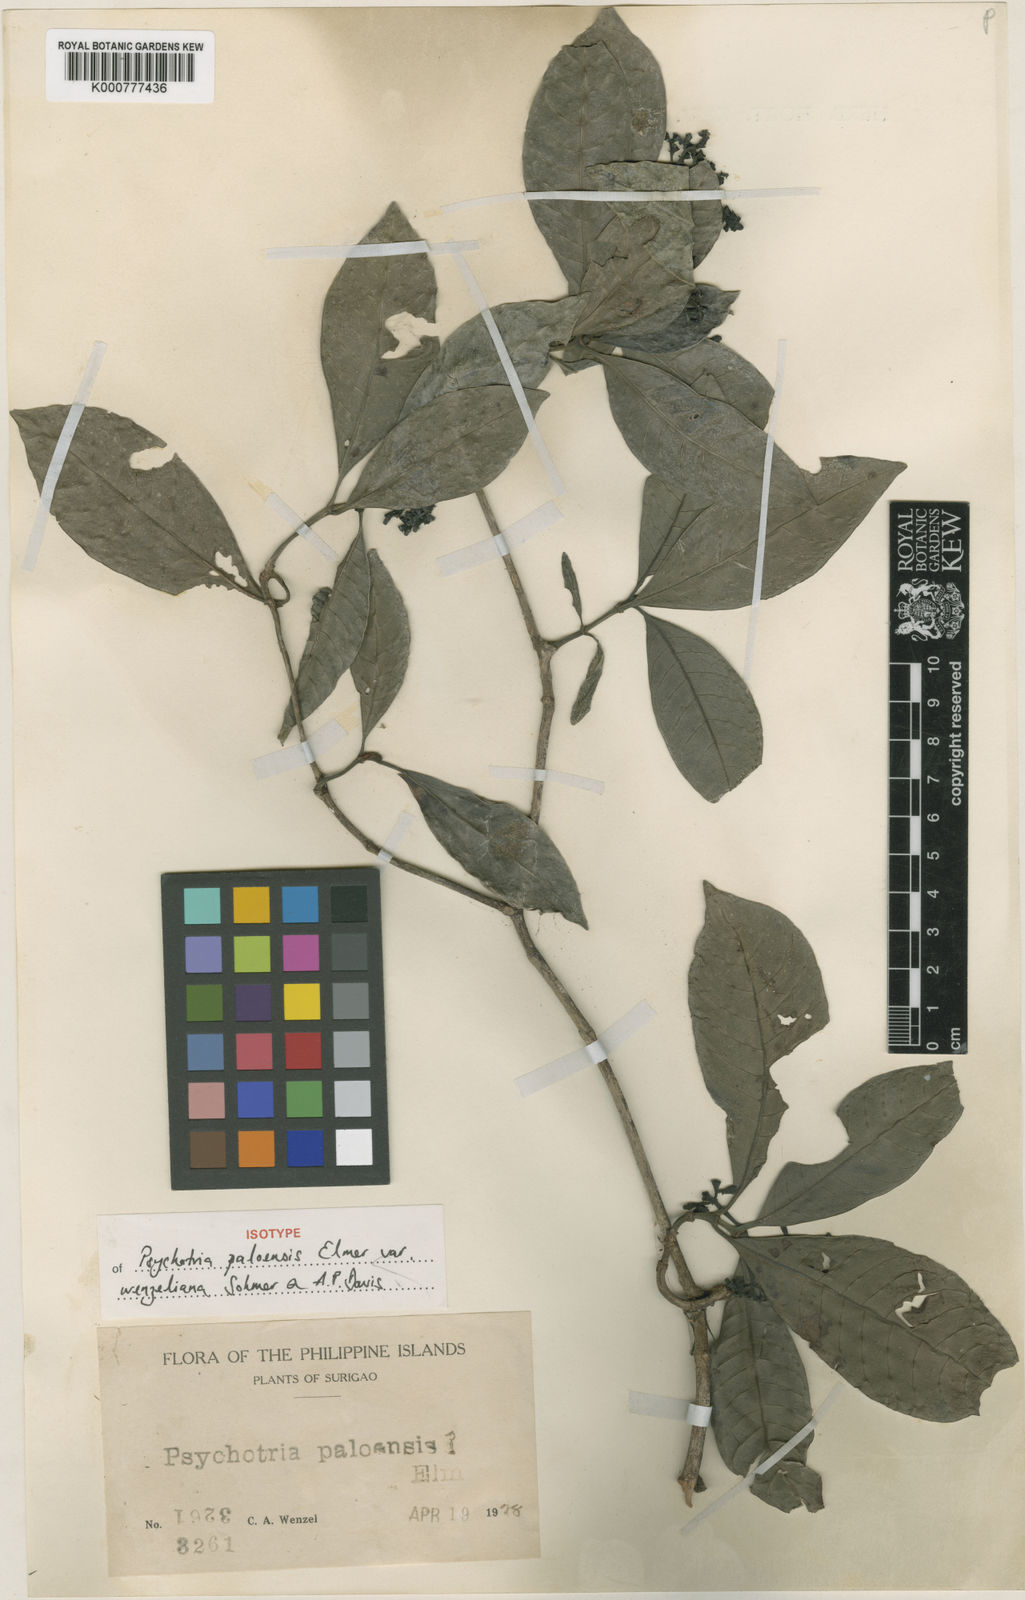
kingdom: Plantae
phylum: Tracheophyta
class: Magnoliopsida
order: Gentianales
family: Rubiaceae
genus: Psychotria
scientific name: Psychotria paloensis
